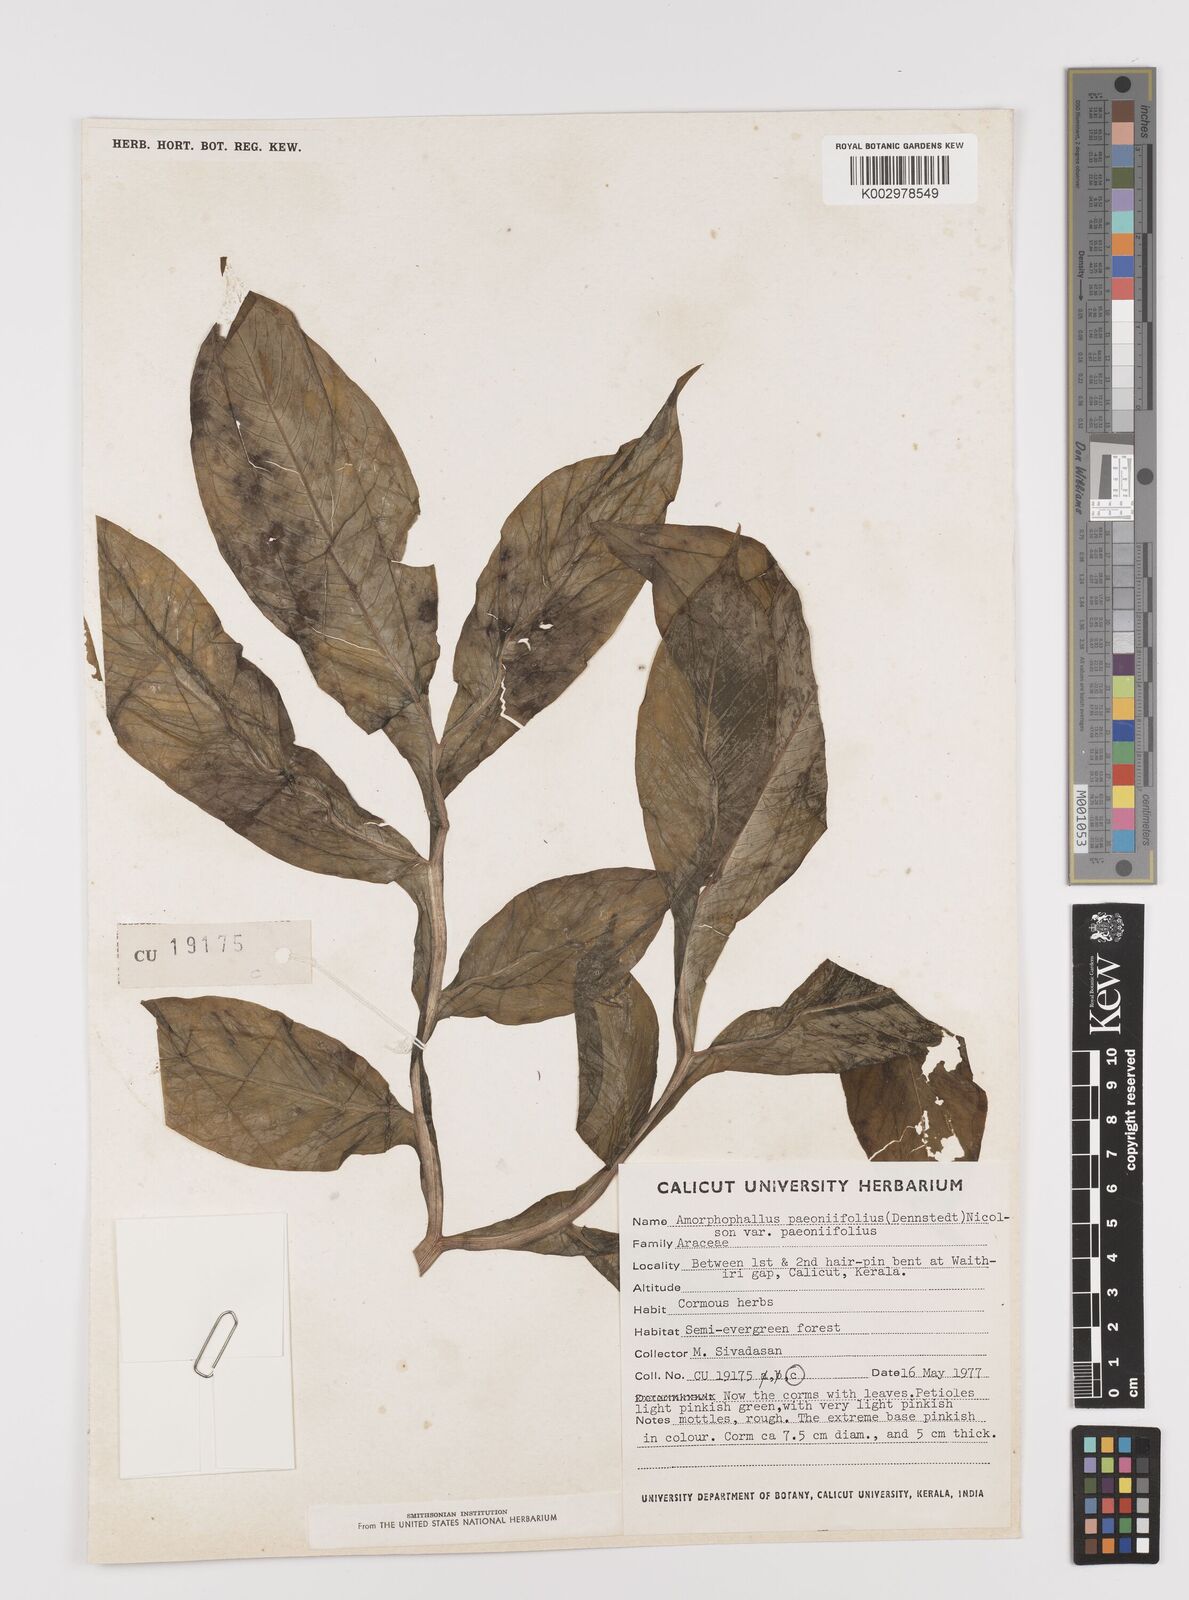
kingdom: Plantae
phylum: Tracheophyta
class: Liliopsida
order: Alismatales
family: Araceae
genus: Amorphophallus
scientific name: Amorphophallus paeoniifolius
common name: Telinga-potato
